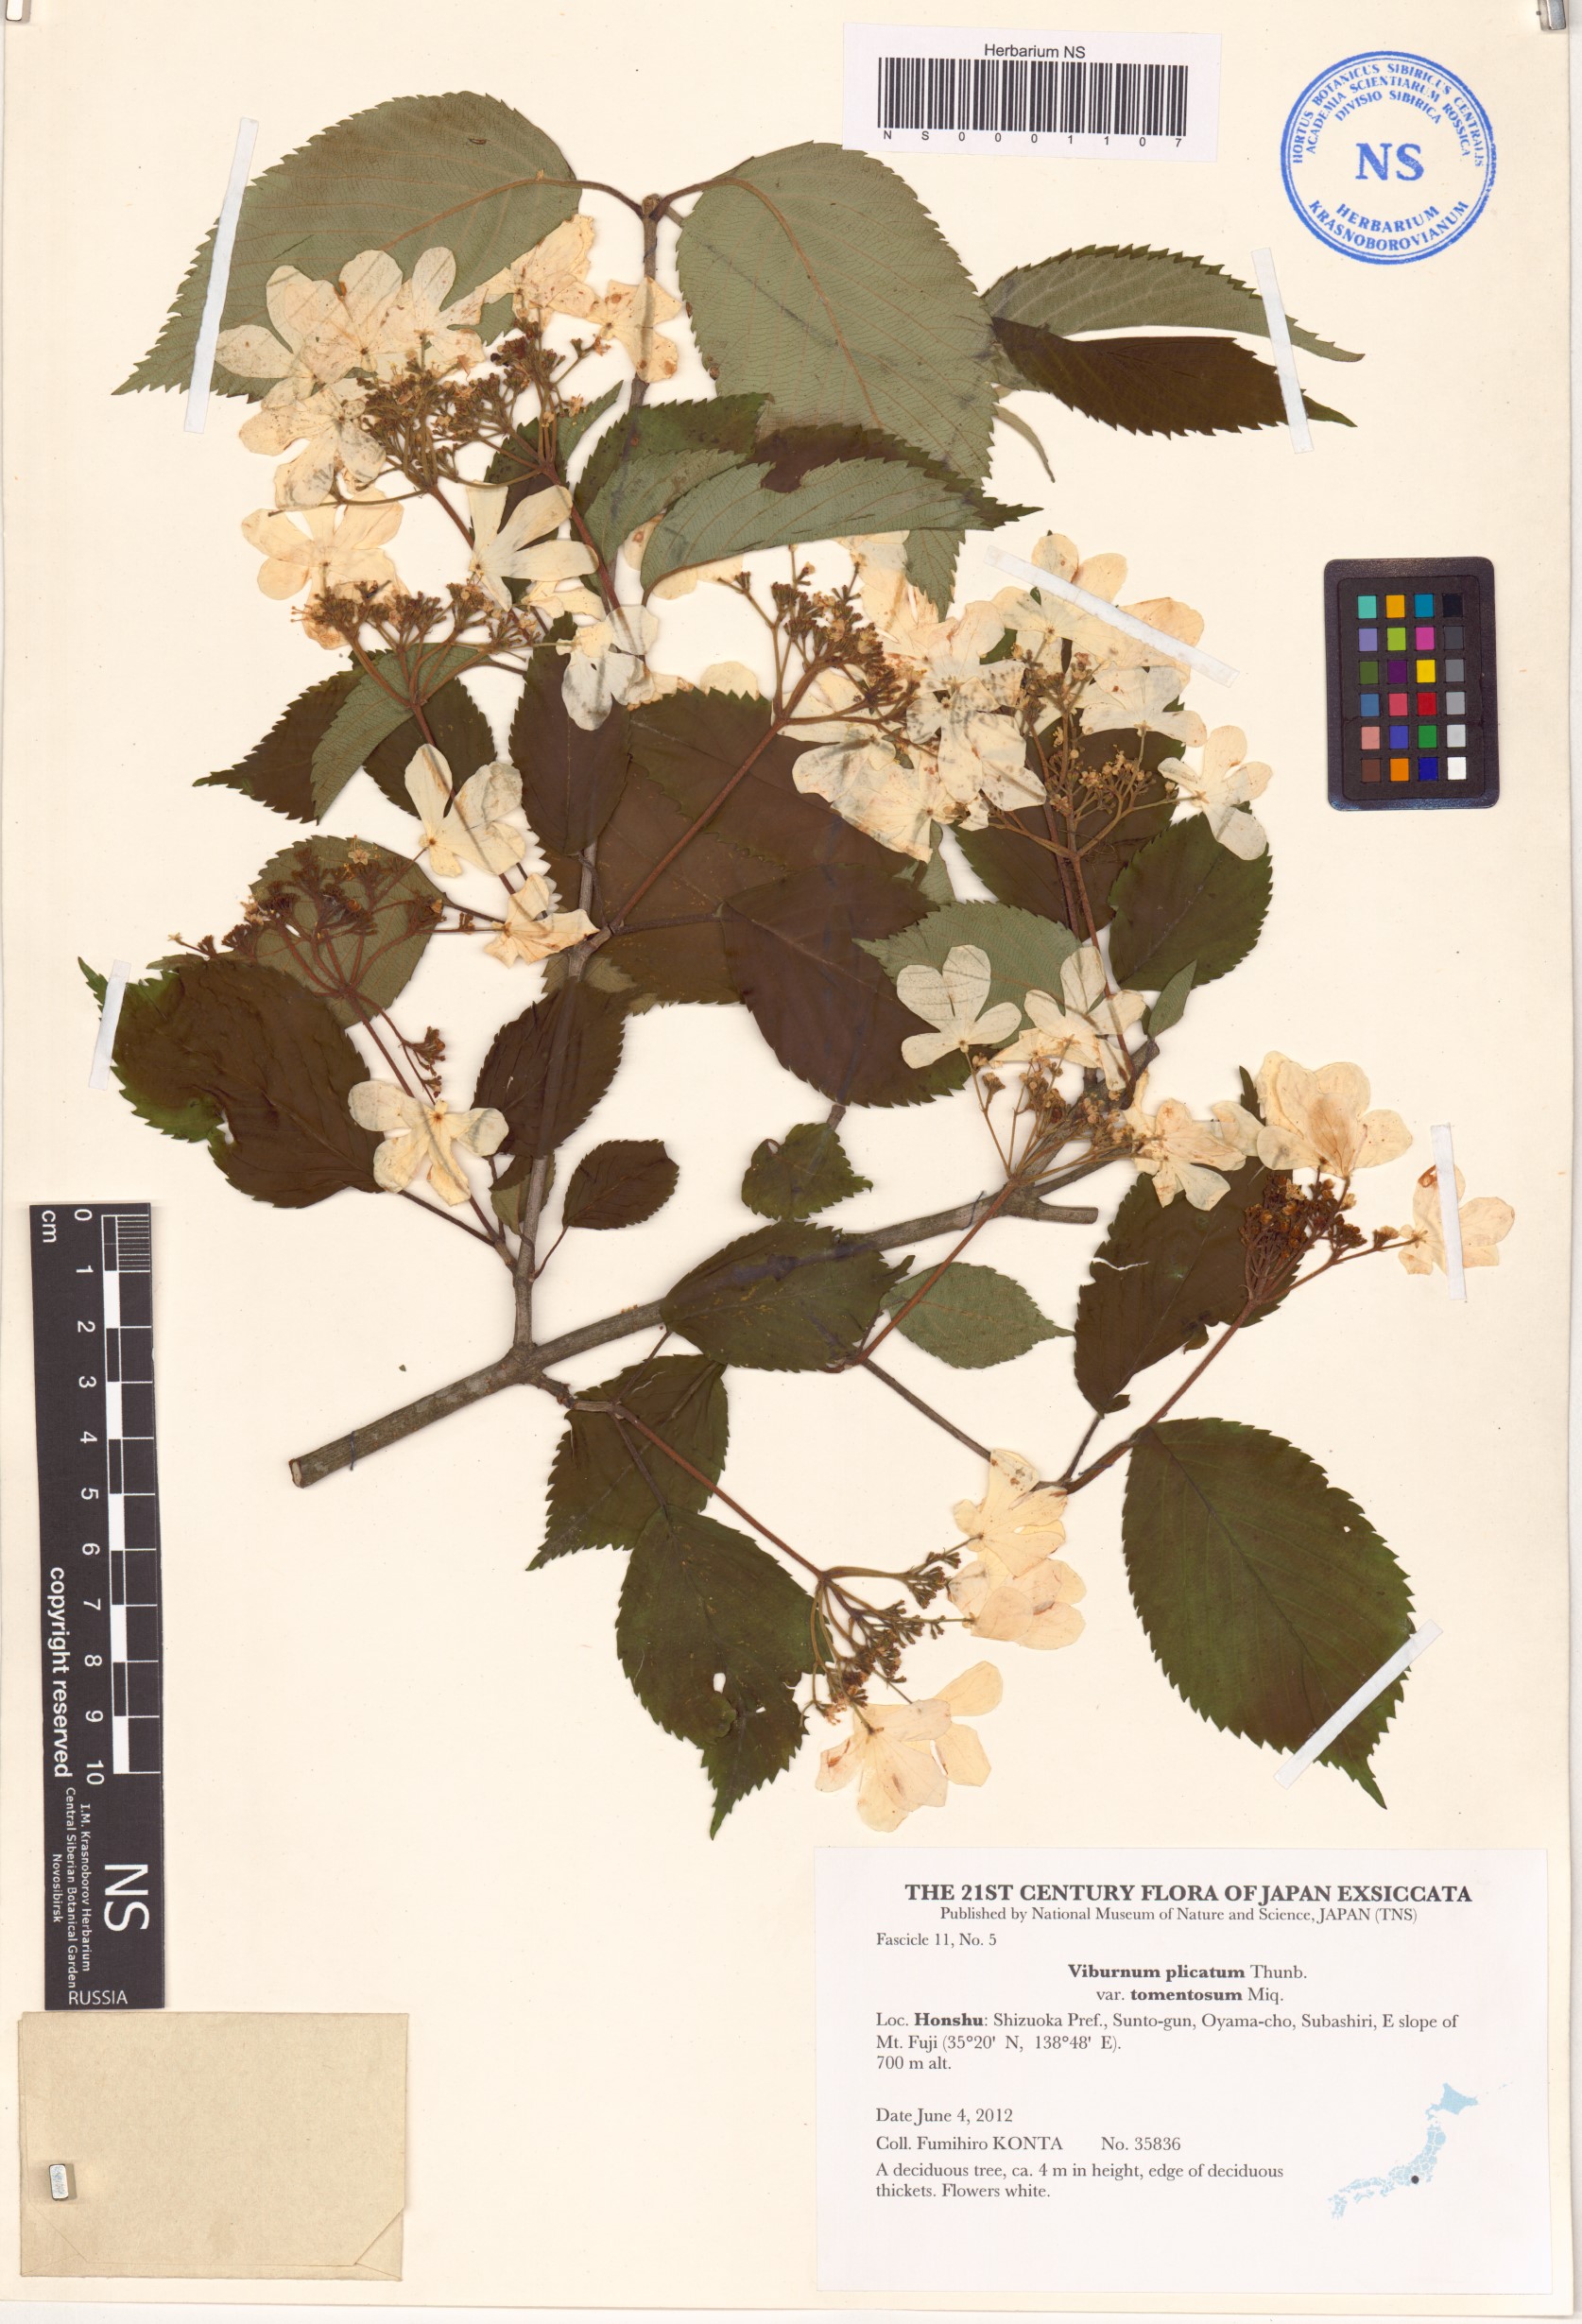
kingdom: Plantae
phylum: Tracheophyta
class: Magnoliopsida
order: Dipsacales
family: Viburnaceae
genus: Viburnum
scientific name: Viburnum plicatum
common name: Japanese snowball
